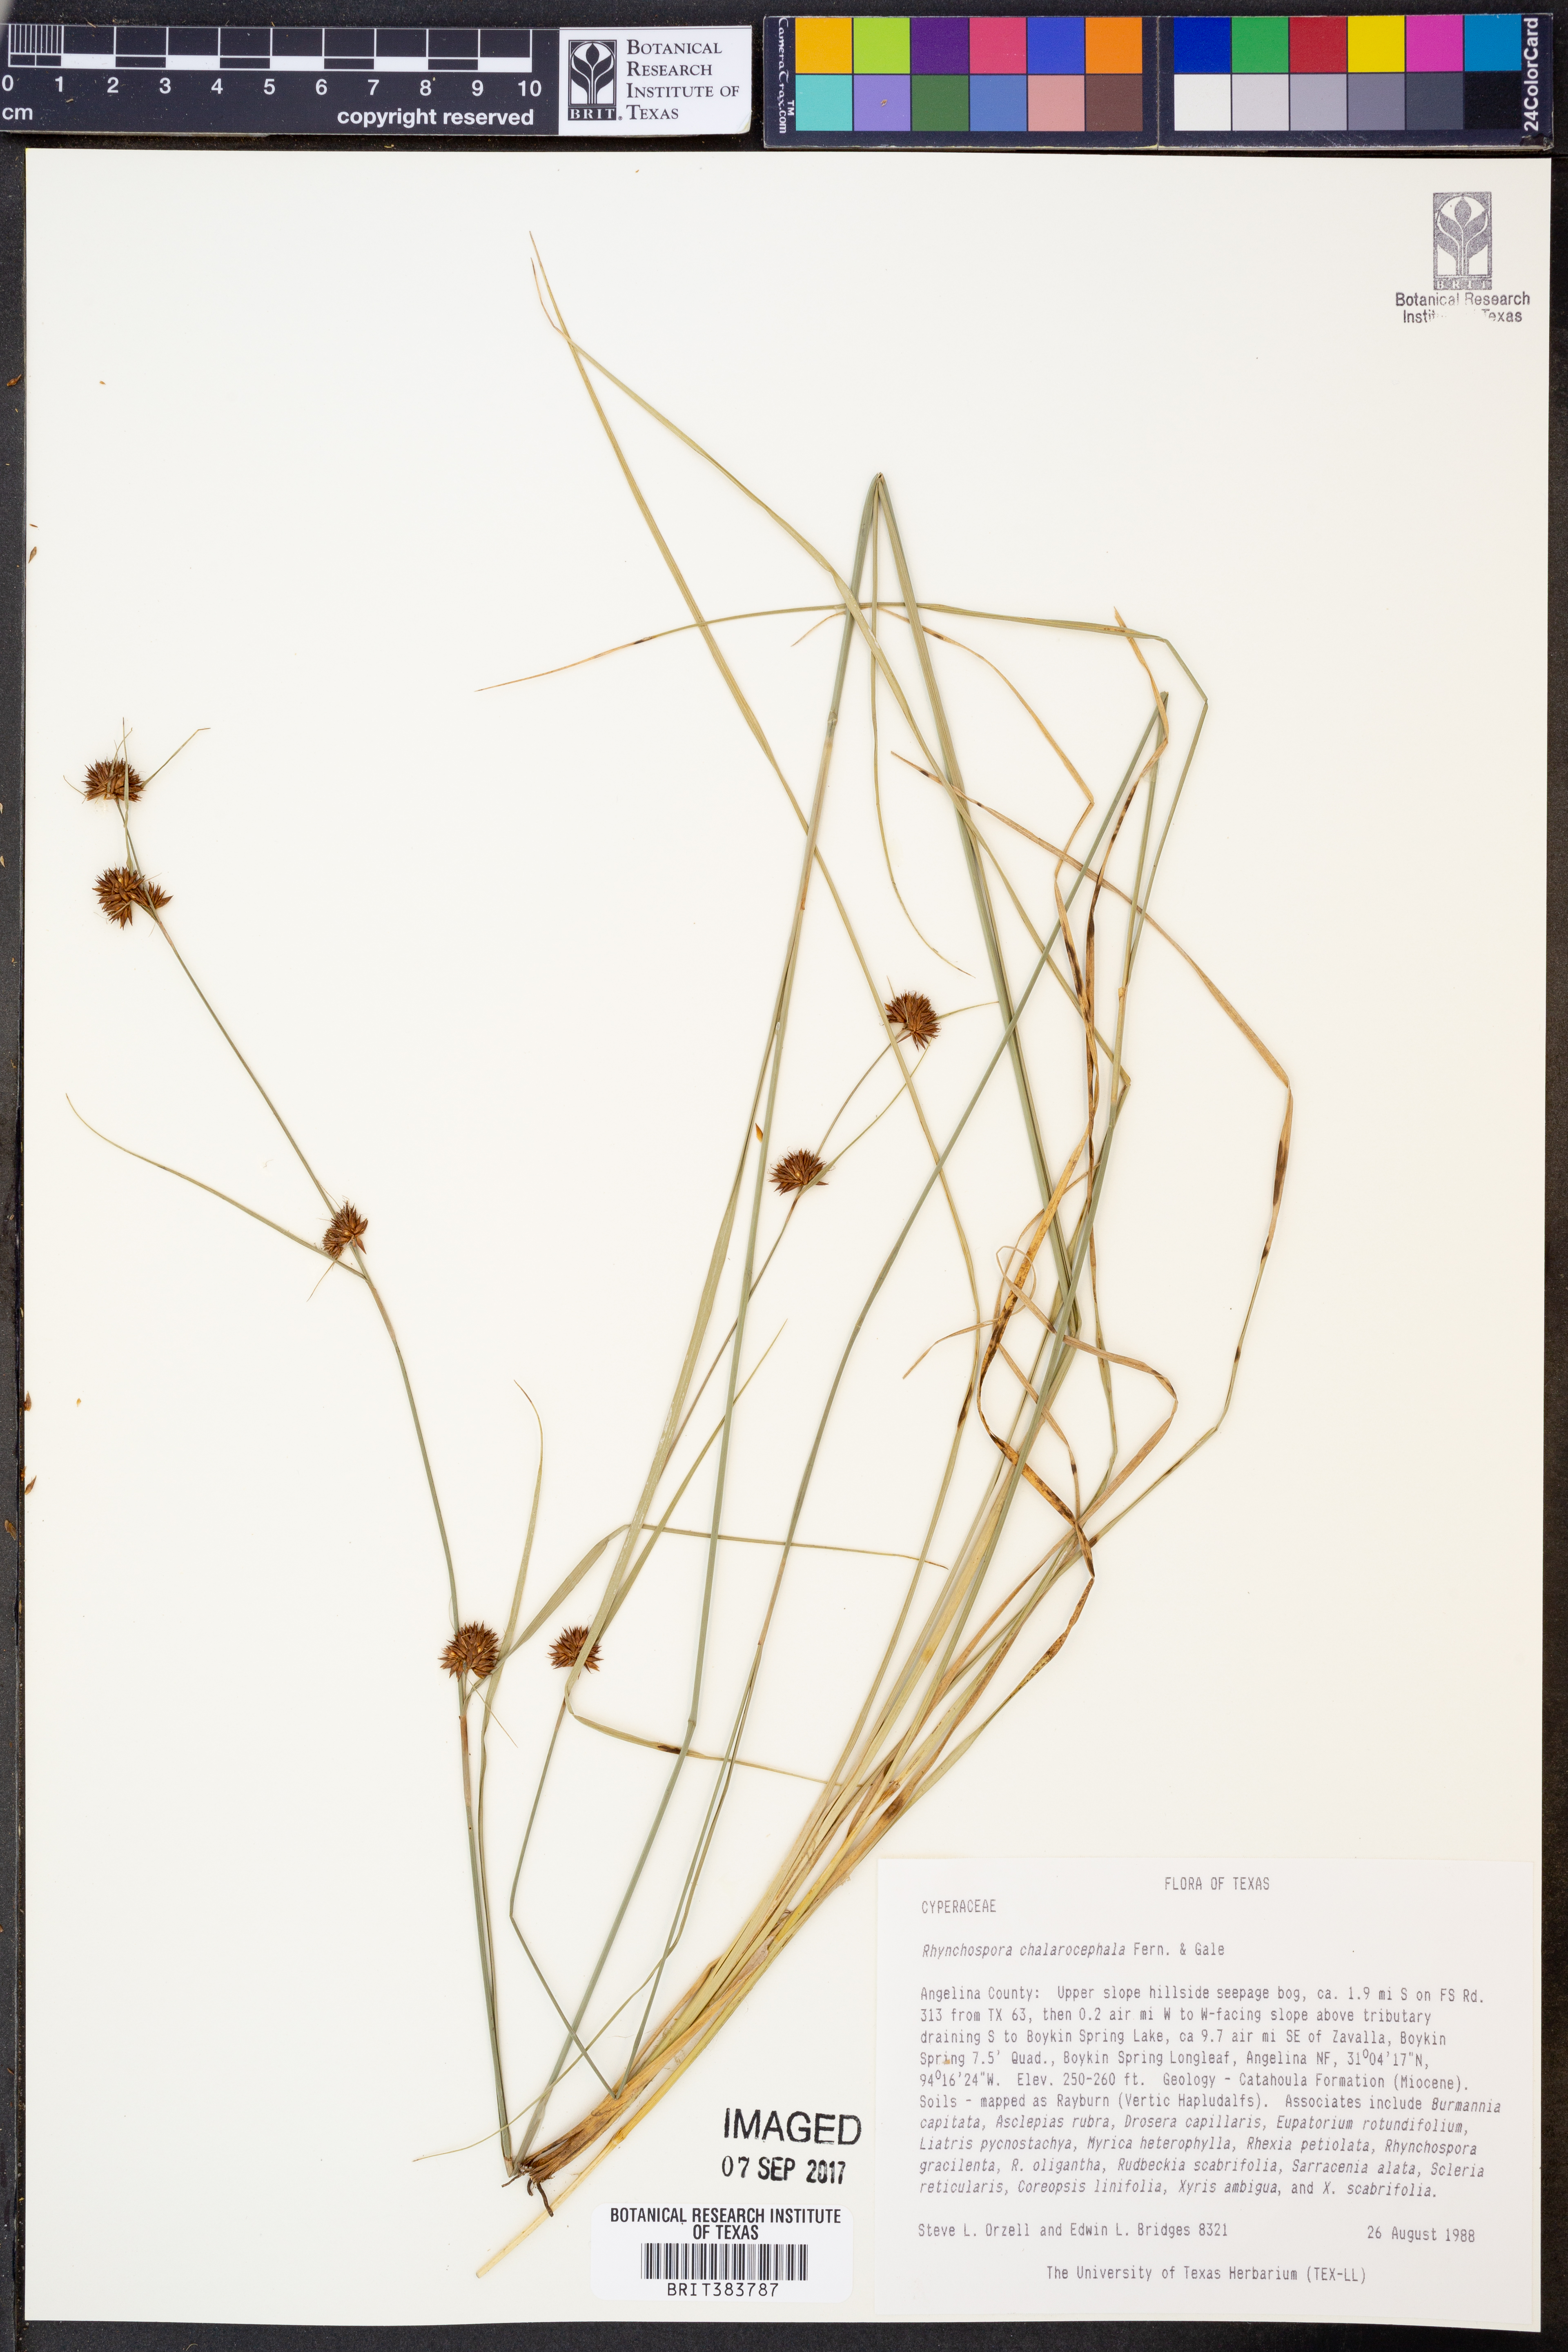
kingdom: Plantae
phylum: Tracheophyta
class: Liliopsida
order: Poales
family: Cyperaceae
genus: Rhynchospora
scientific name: Rhynchospora chalarocephala
